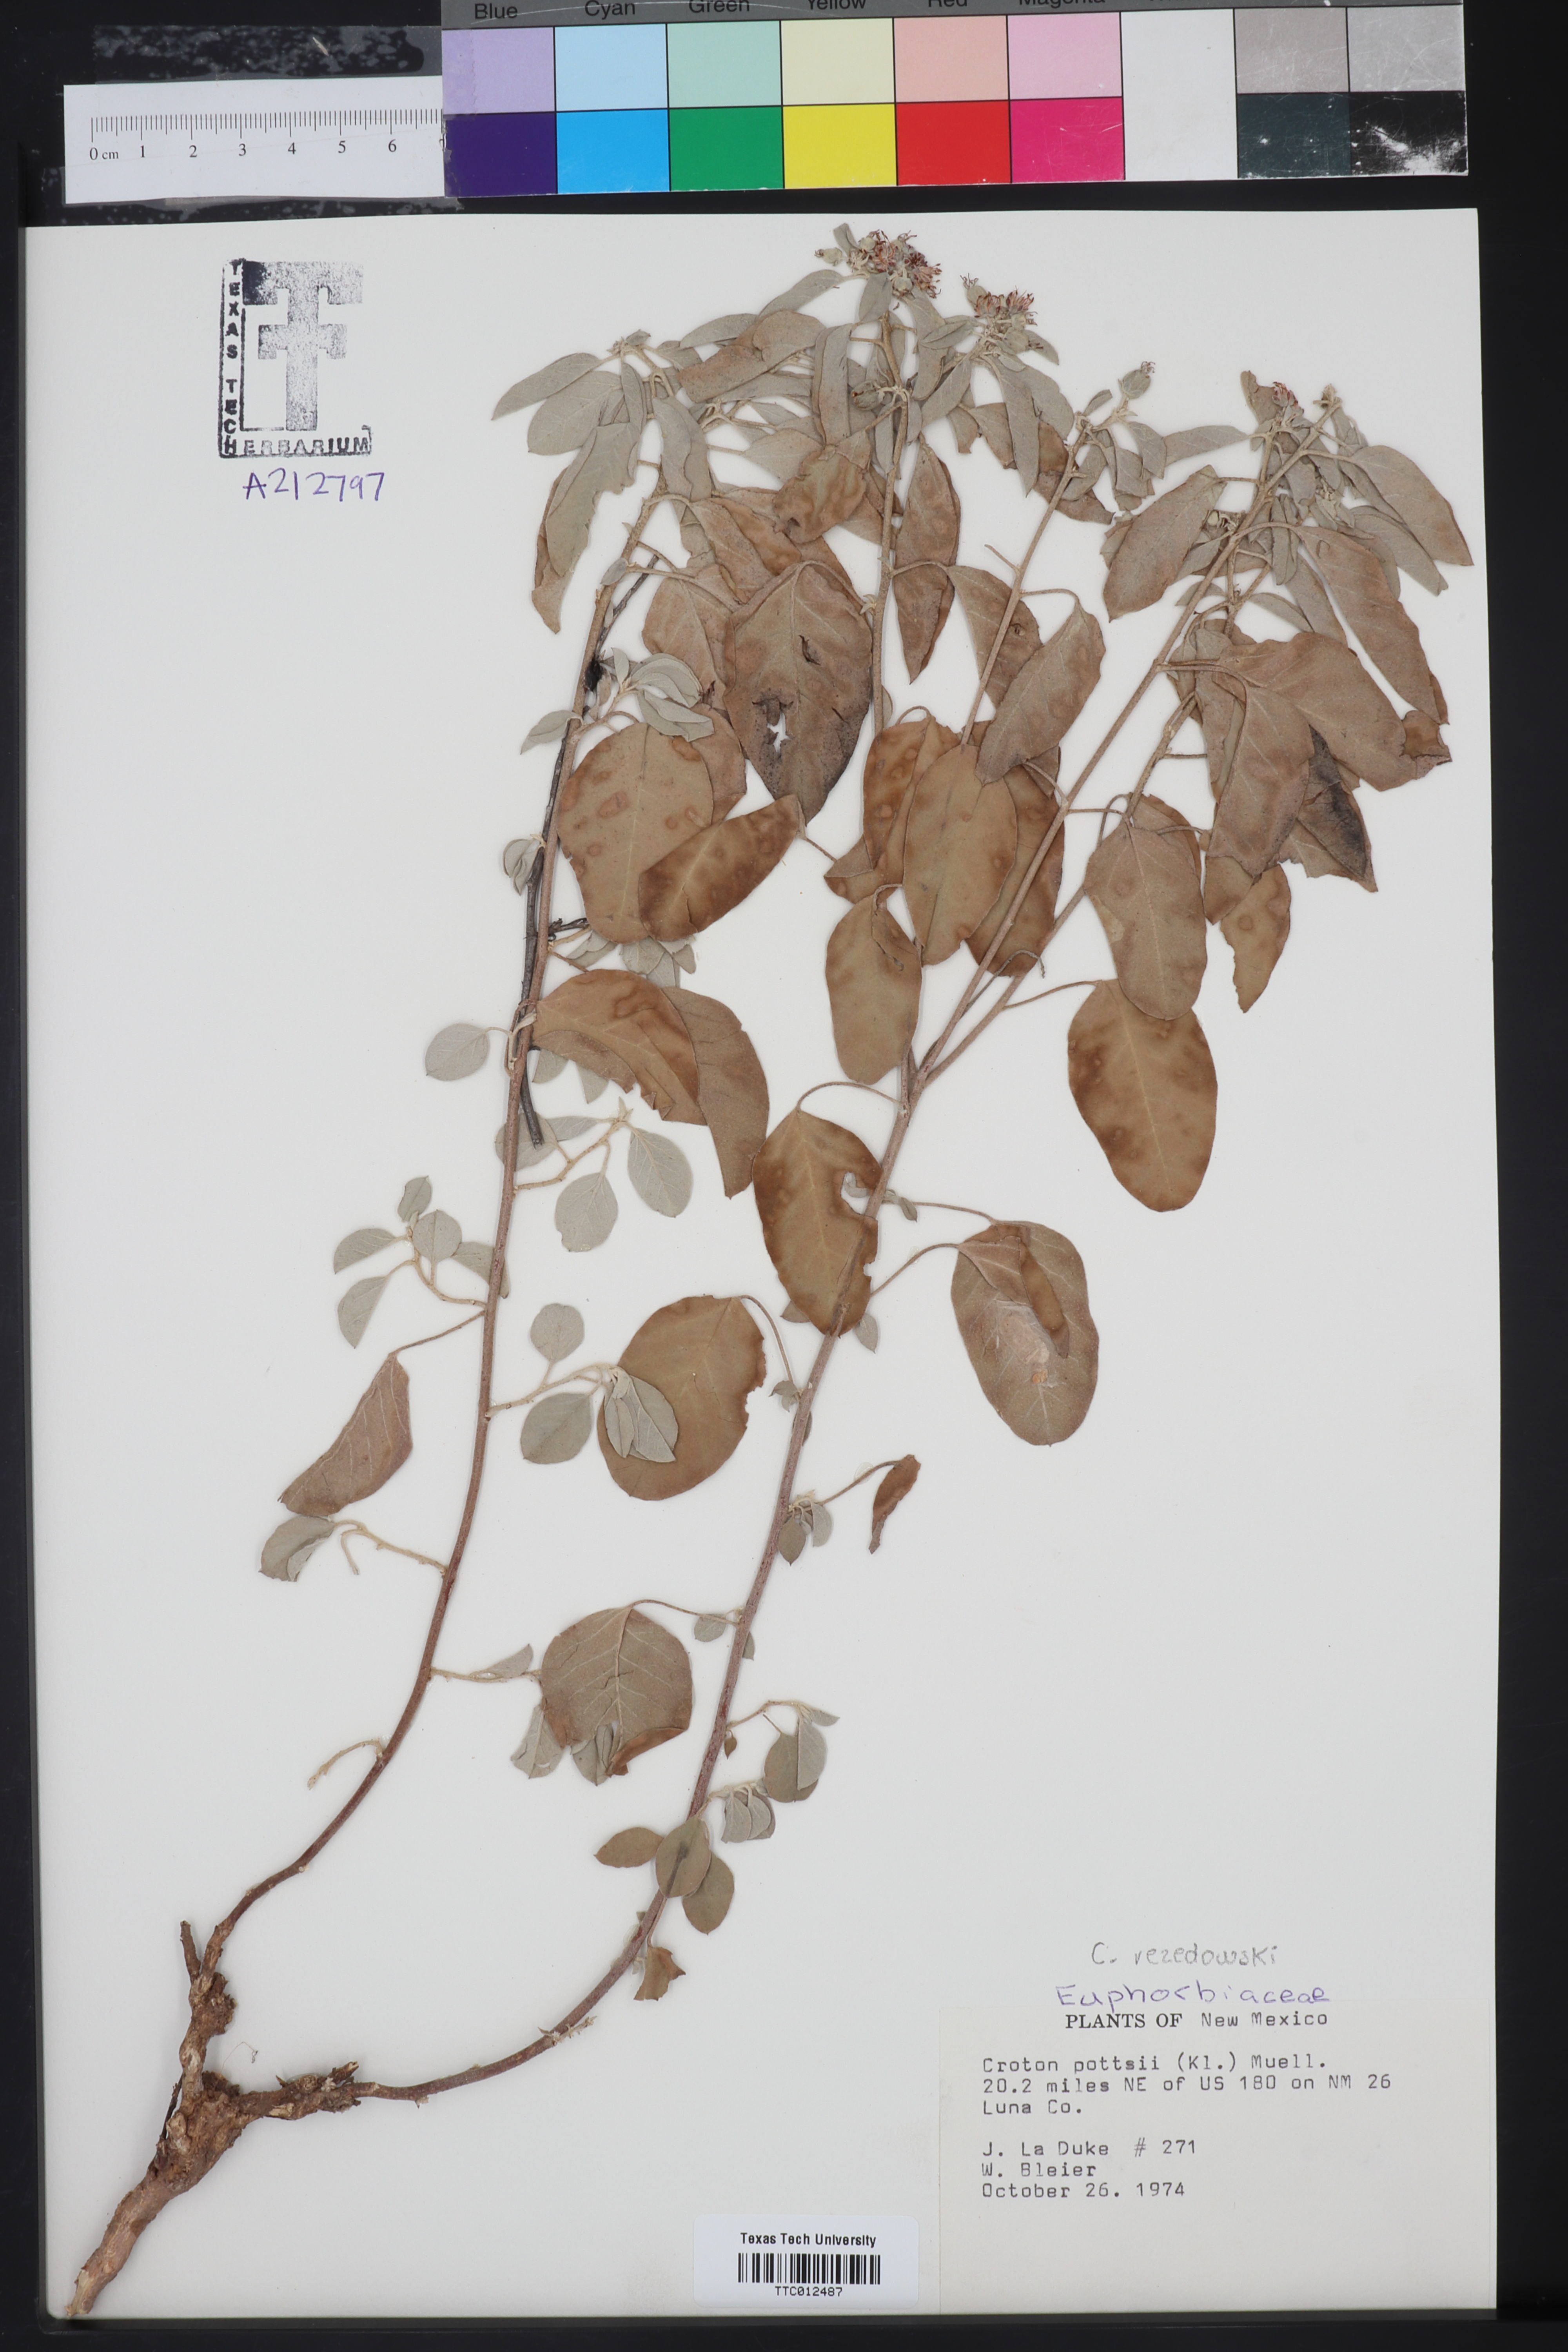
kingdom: Plantae
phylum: Tracheophyta
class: Magnoliopsida
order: Malpighiales
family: Euphorbiaceae
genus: Croton
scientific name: Croton pottsii
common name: Leatherweed
